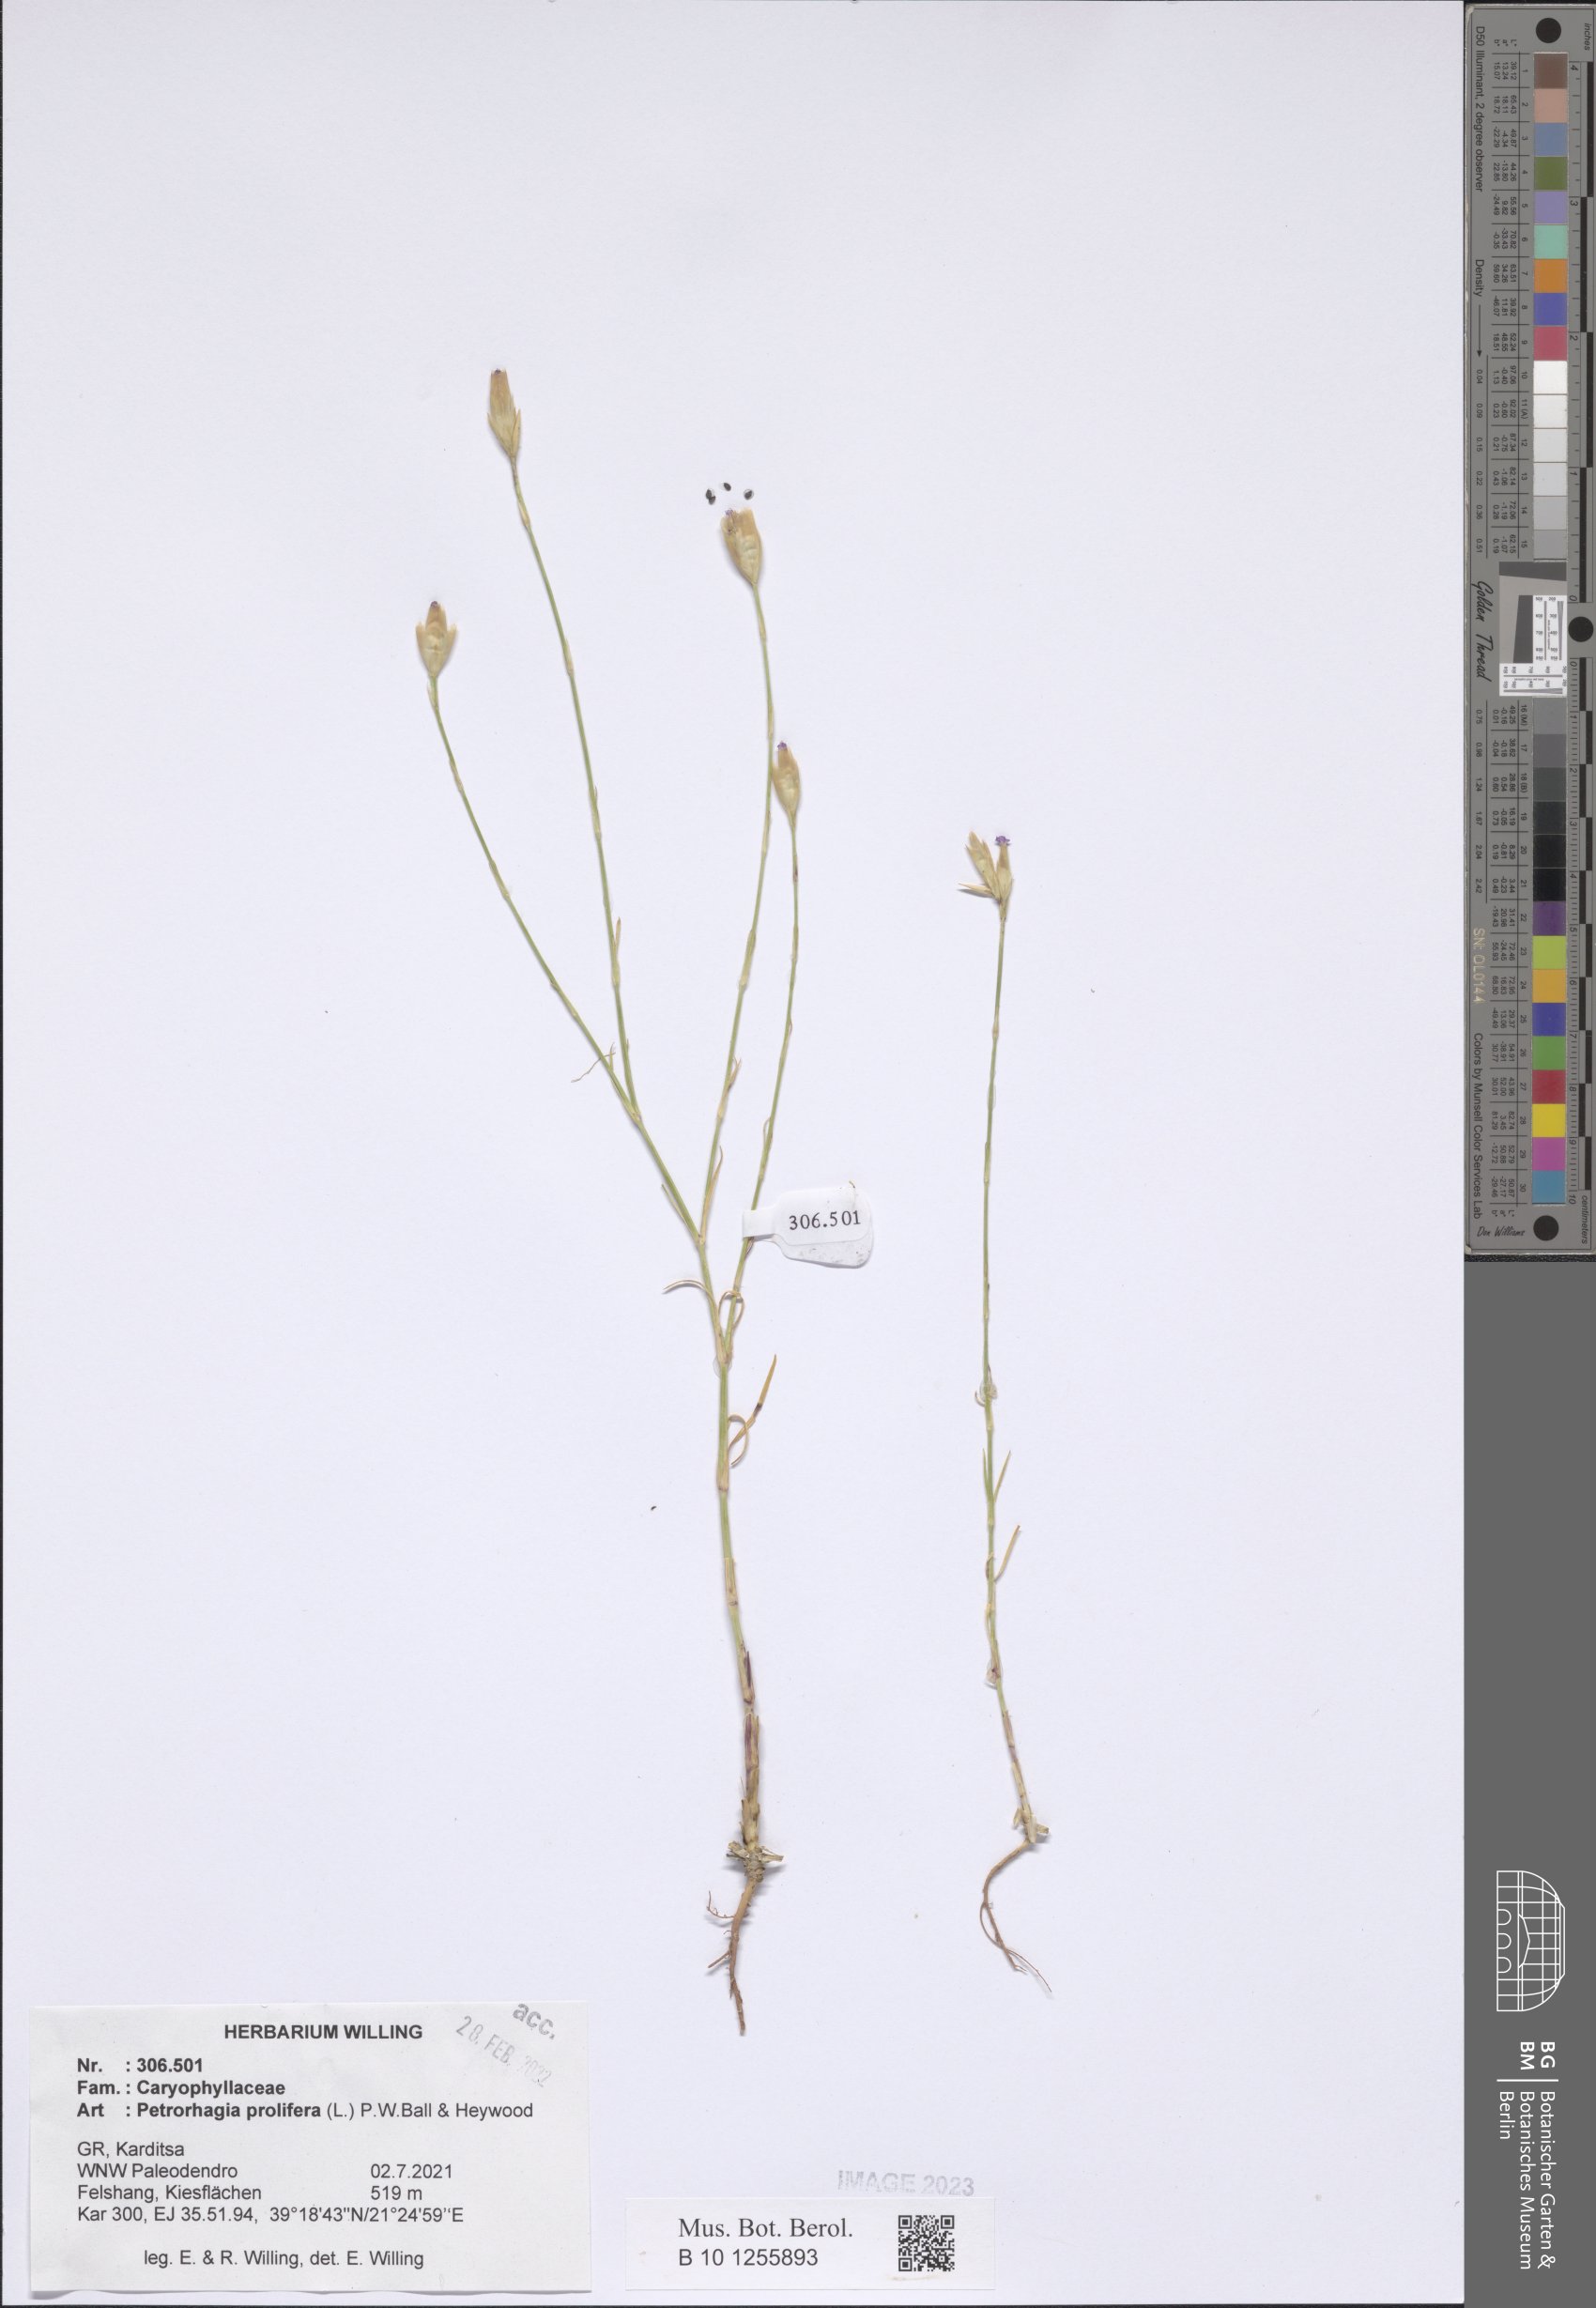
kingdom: Plantae
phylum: Tracheophyta
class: Magnoliopsida
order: Caryophyllales
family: Caryophyllaceae
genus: Petrorhagia
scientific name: Petrorhagia prolifera
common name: Proliferous pink
